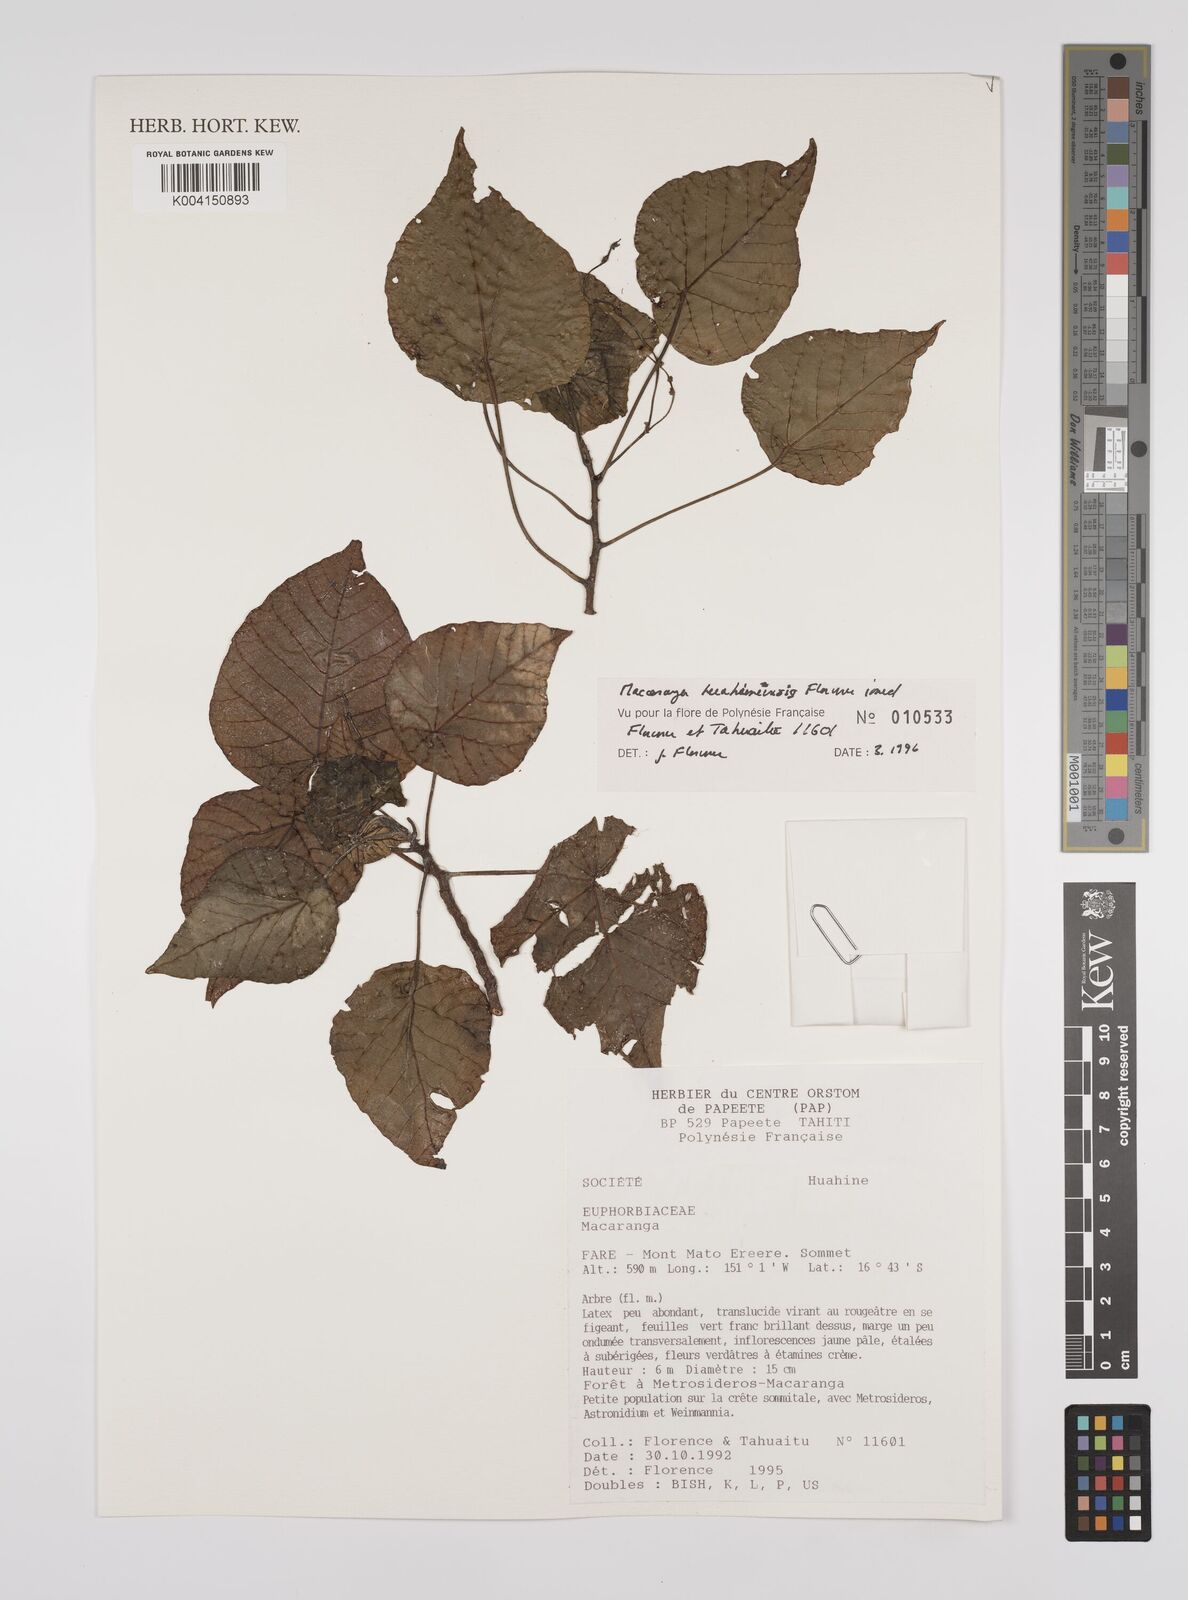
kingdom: Plantae
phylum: Tracheophyta
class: Magnoliopsida
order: Malpighiales
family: Euphorbiaceae
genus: Macaranga
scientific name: Macaranga huahineensis
